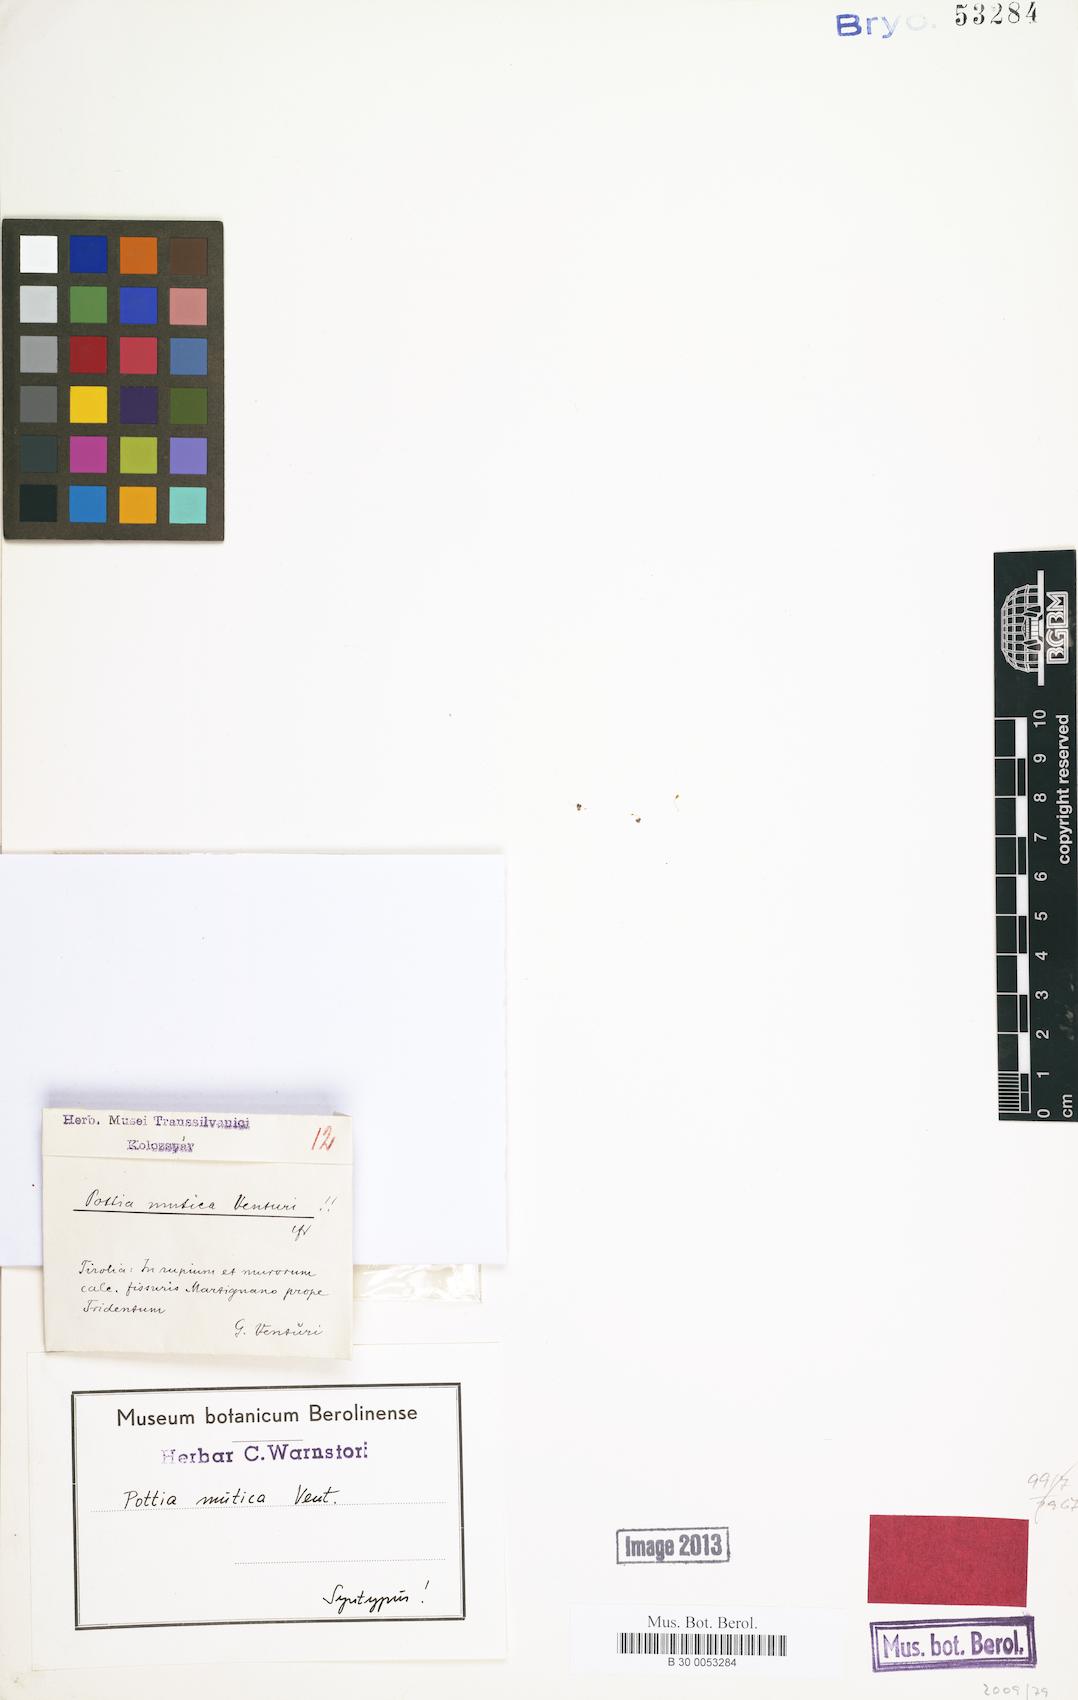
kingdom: Plantae
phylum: Bryophyta
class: Bryopsida
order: Pottiales
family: Pottiaceae
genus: Microbryum
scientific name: Microbryum muticum
